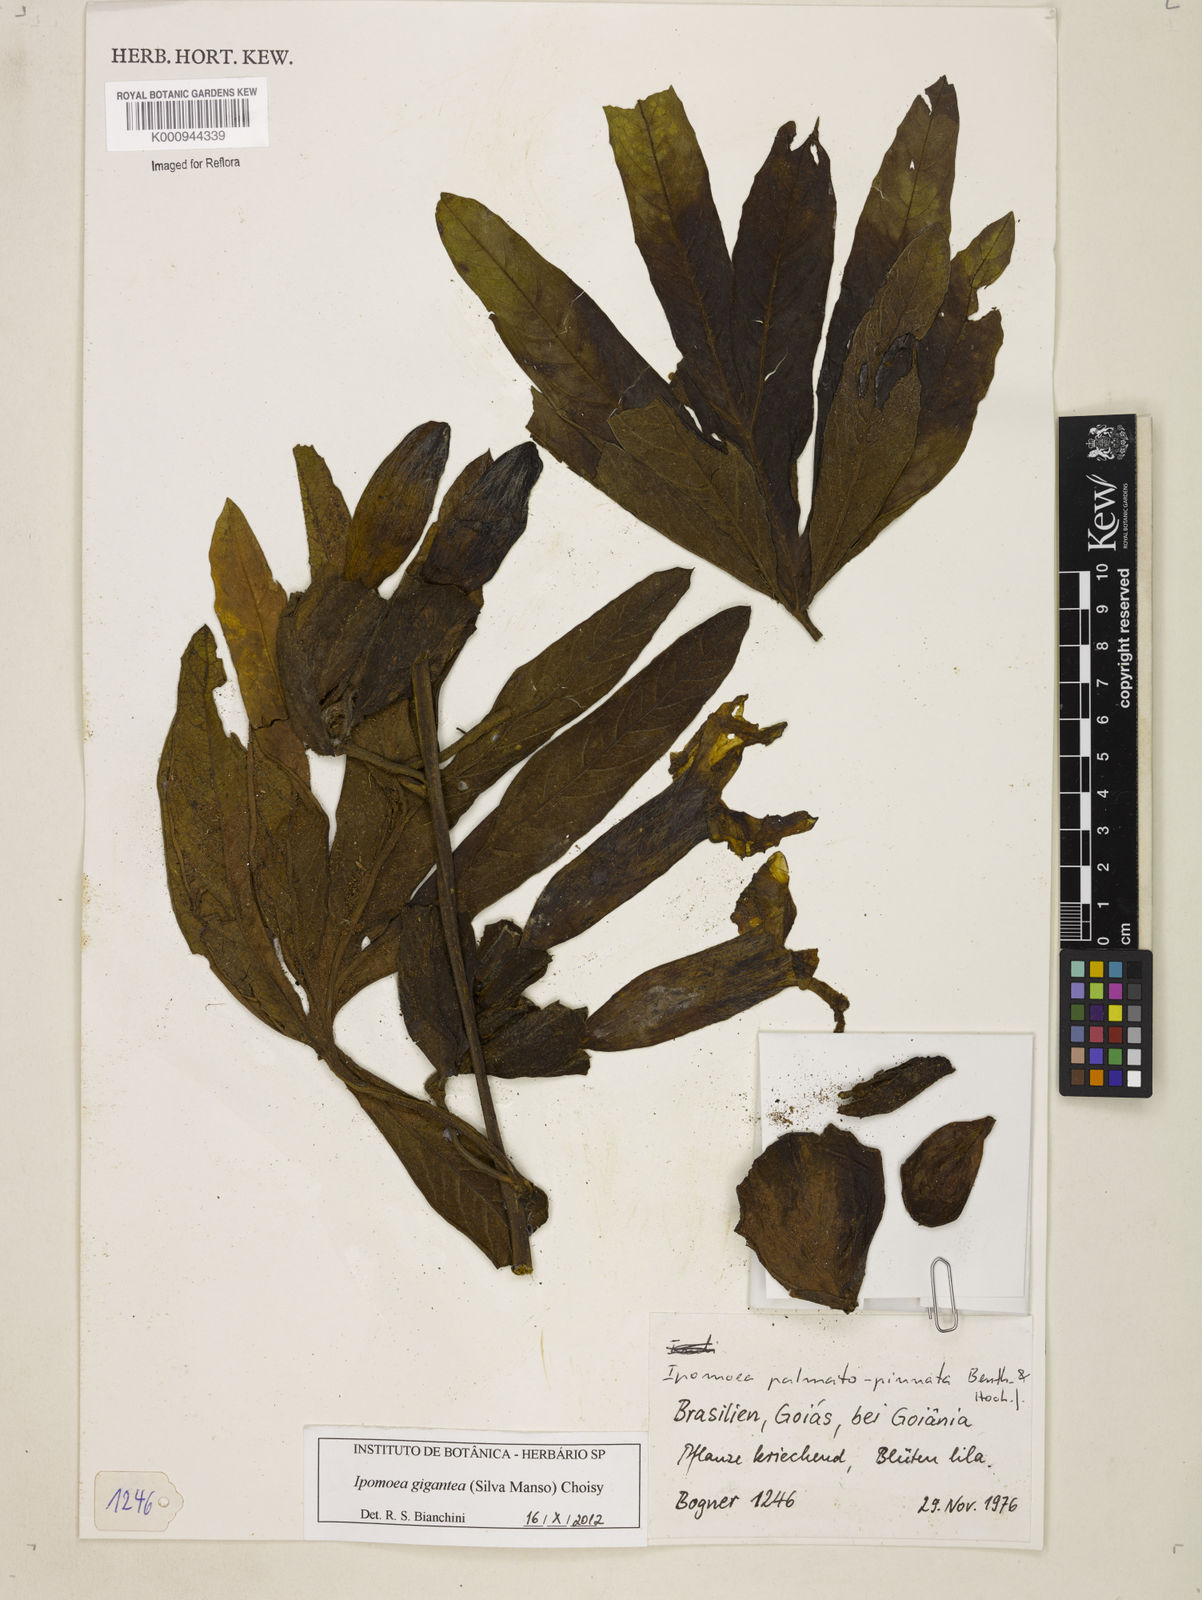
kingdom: Plantae
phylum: Tracheophyta
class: Magnoliopsida
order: Solanales
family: Convolvulaceae
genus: Ipomoea
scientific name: Ipomoea gigantea
